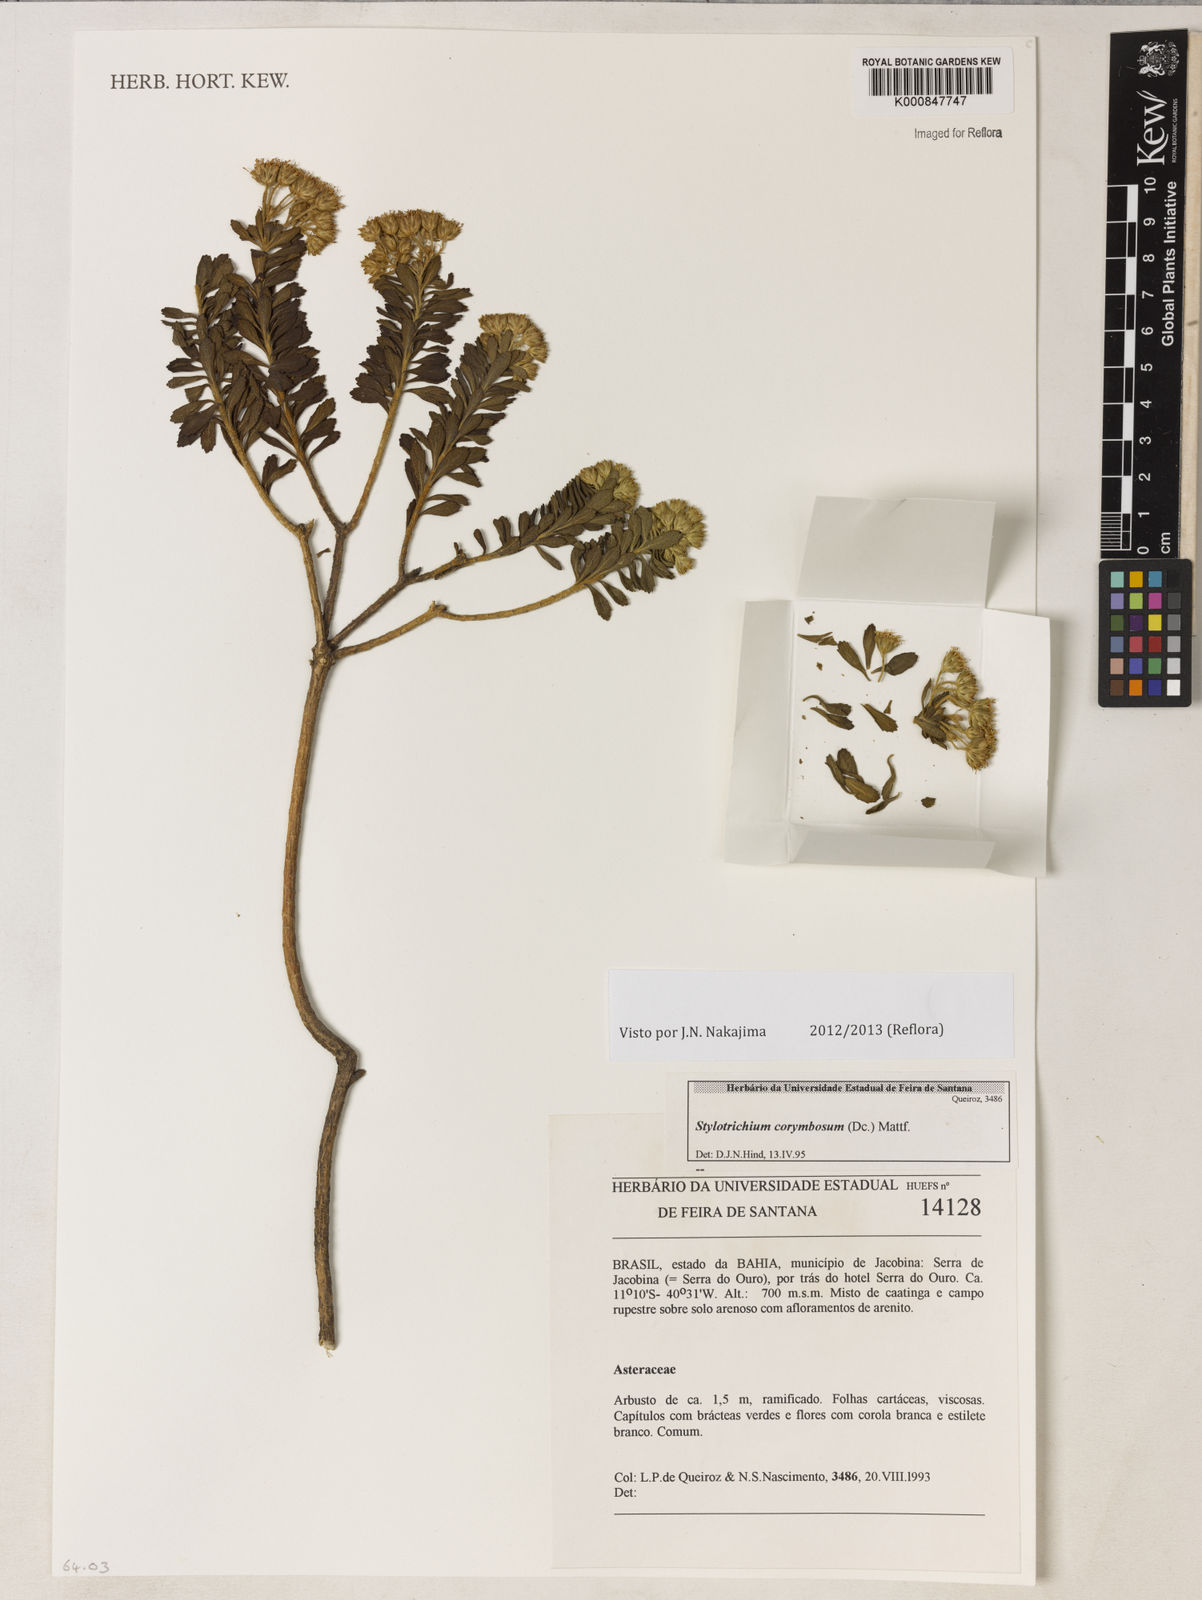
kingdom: Plantae
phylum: Tracheophyta
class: Magnoliopsida
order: Asterales
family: Asteraceae
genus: Stylotrichium
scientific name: Stylotrichium corymbosum
